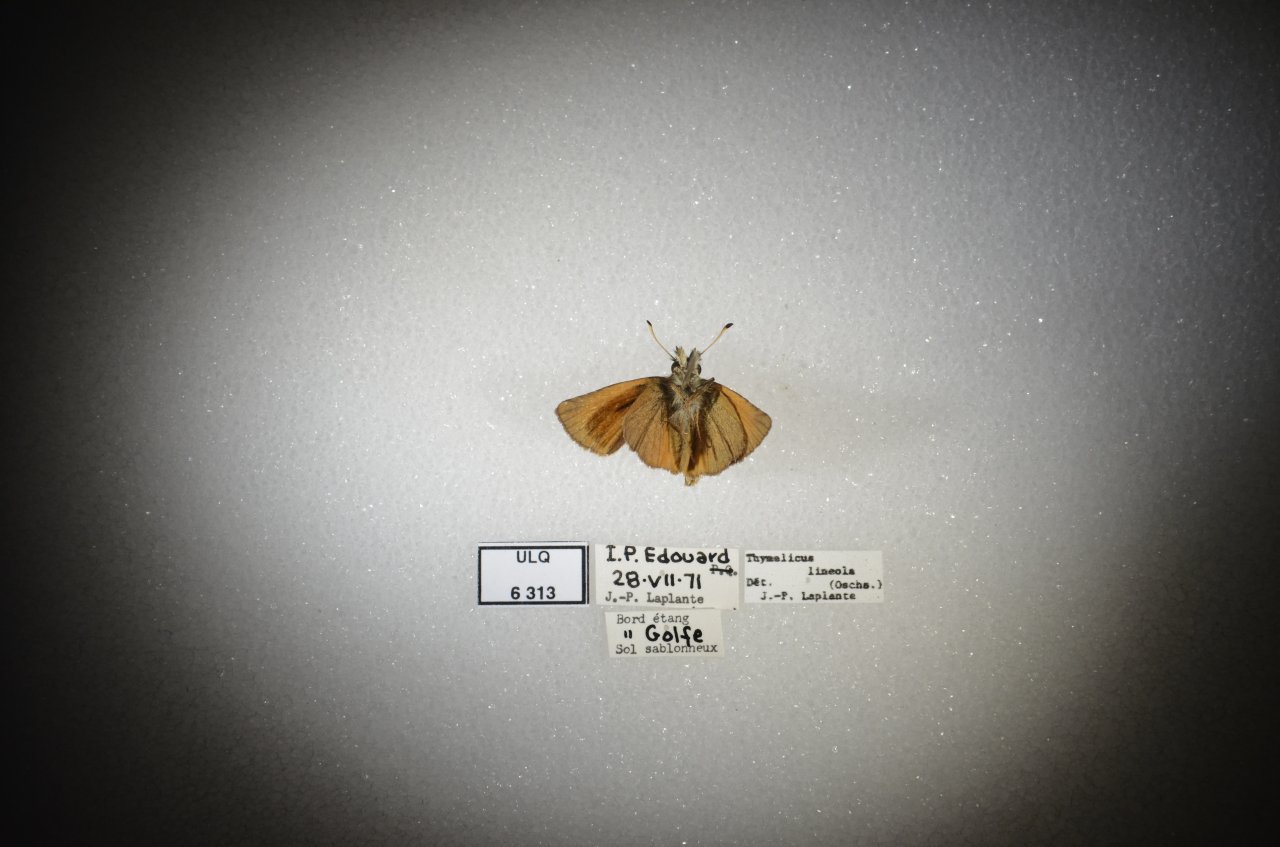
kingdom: Animalia
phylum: Arthropoda
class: Insecta
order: Lepidoptera
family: Hesperiidae
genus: Thymelicus
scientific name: Thymelicus lineola
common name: European Skipper
